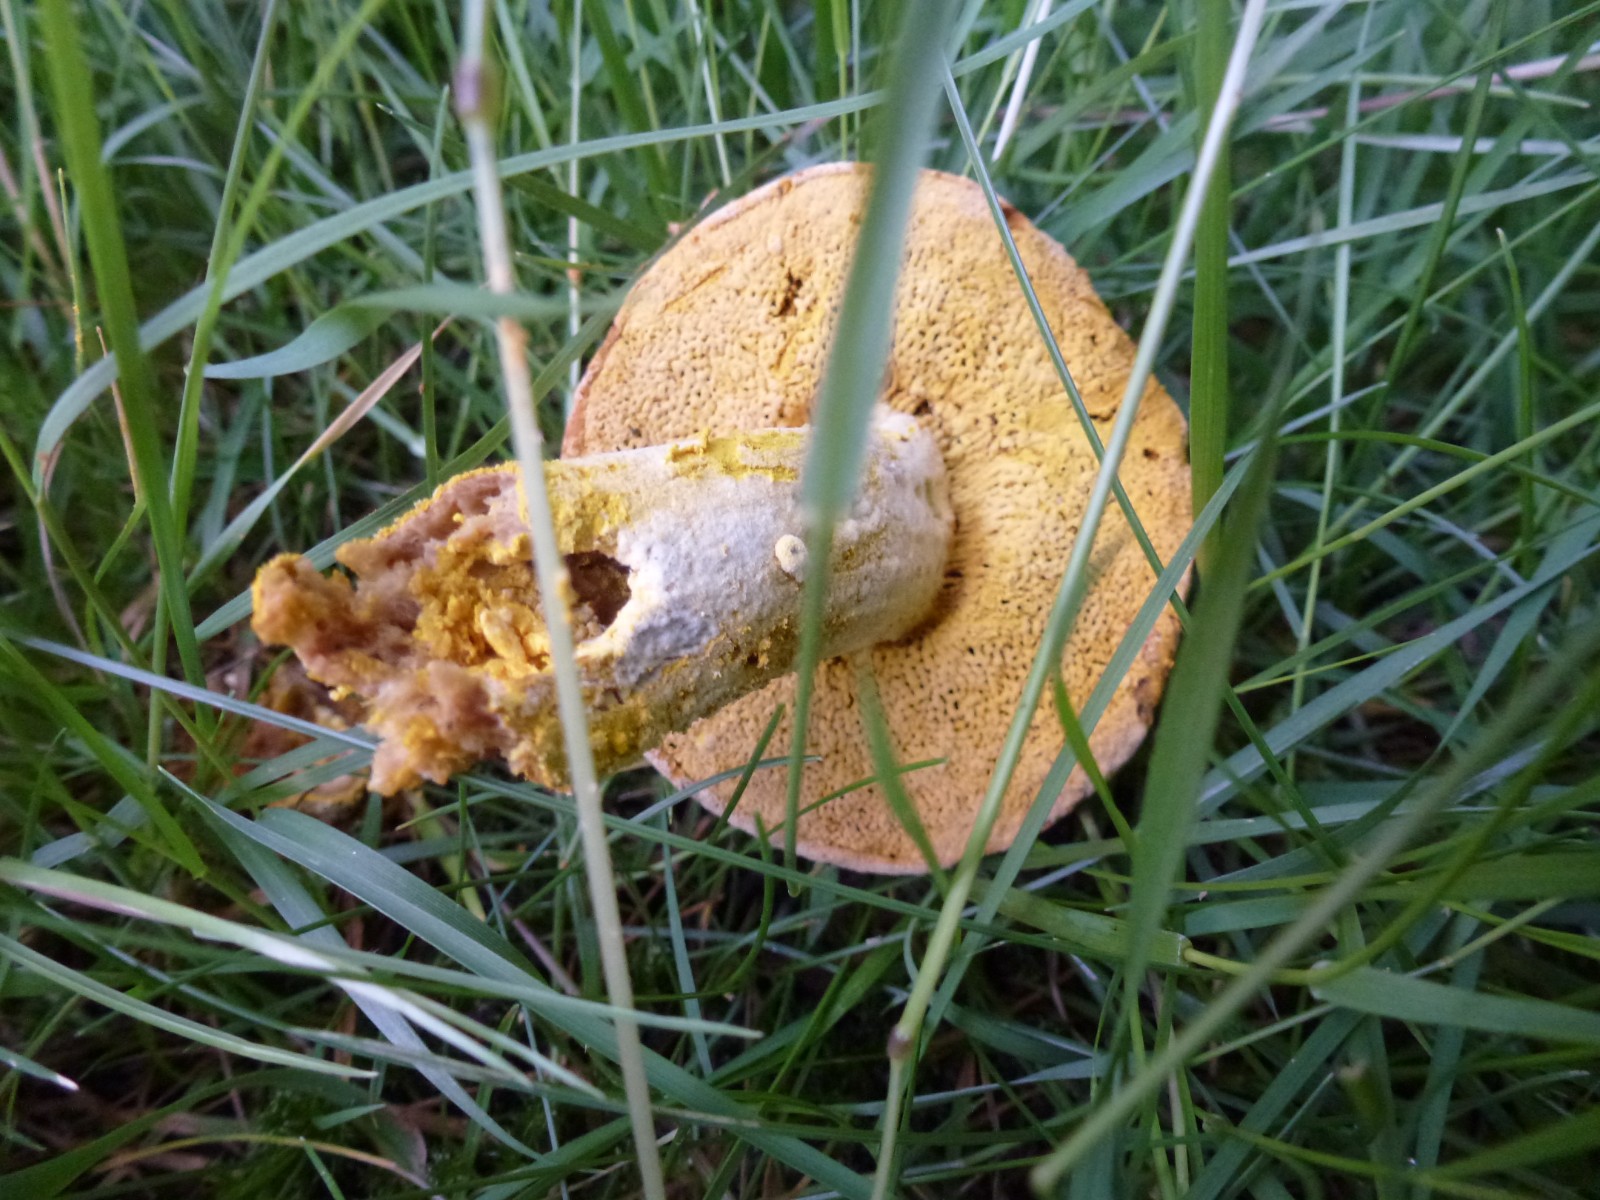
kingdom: Fungi
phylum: Ascomycota
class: Sordariomycetes
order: Hypocreales
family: Hypocreaceae
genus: Hypomyces
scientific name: Hypomyces
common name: snylteskorpe
